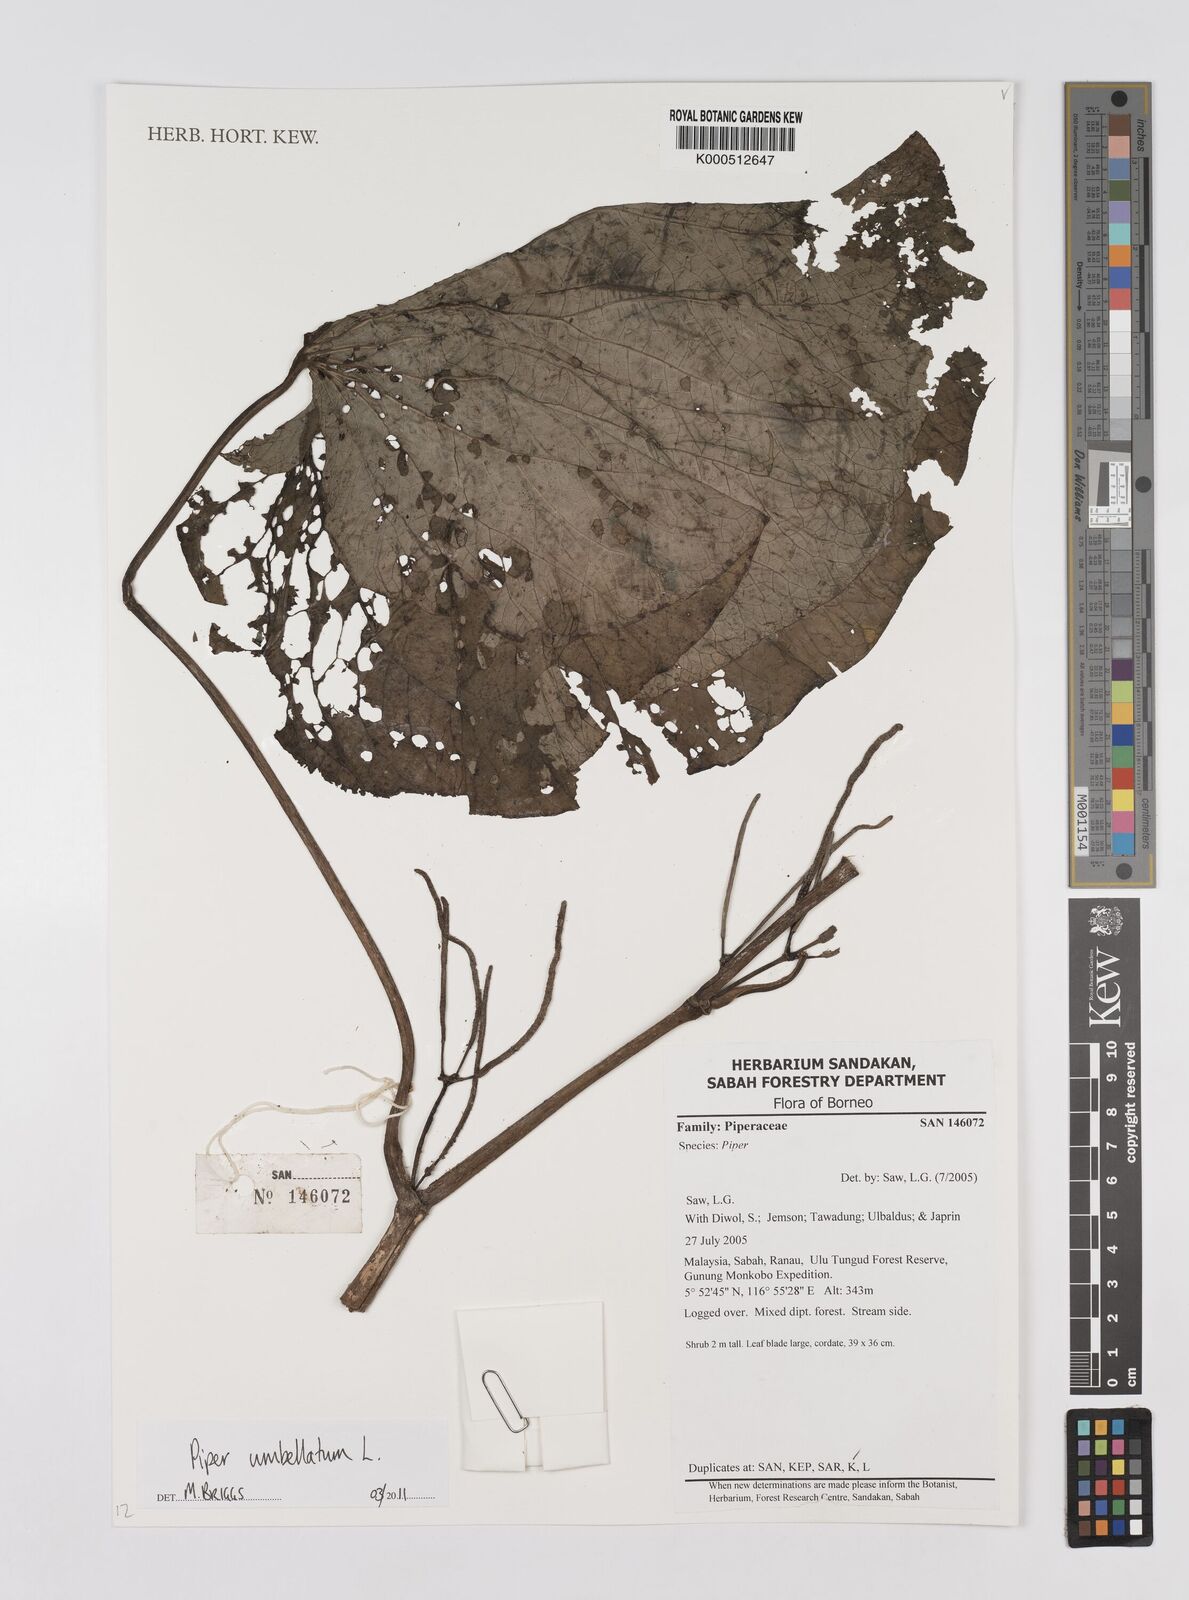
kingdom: Plantae
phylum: Tracheophyta
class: Magnoliopsida
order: Piperales
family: Piperaceae
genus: Piper
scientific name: Piper umbellatum
